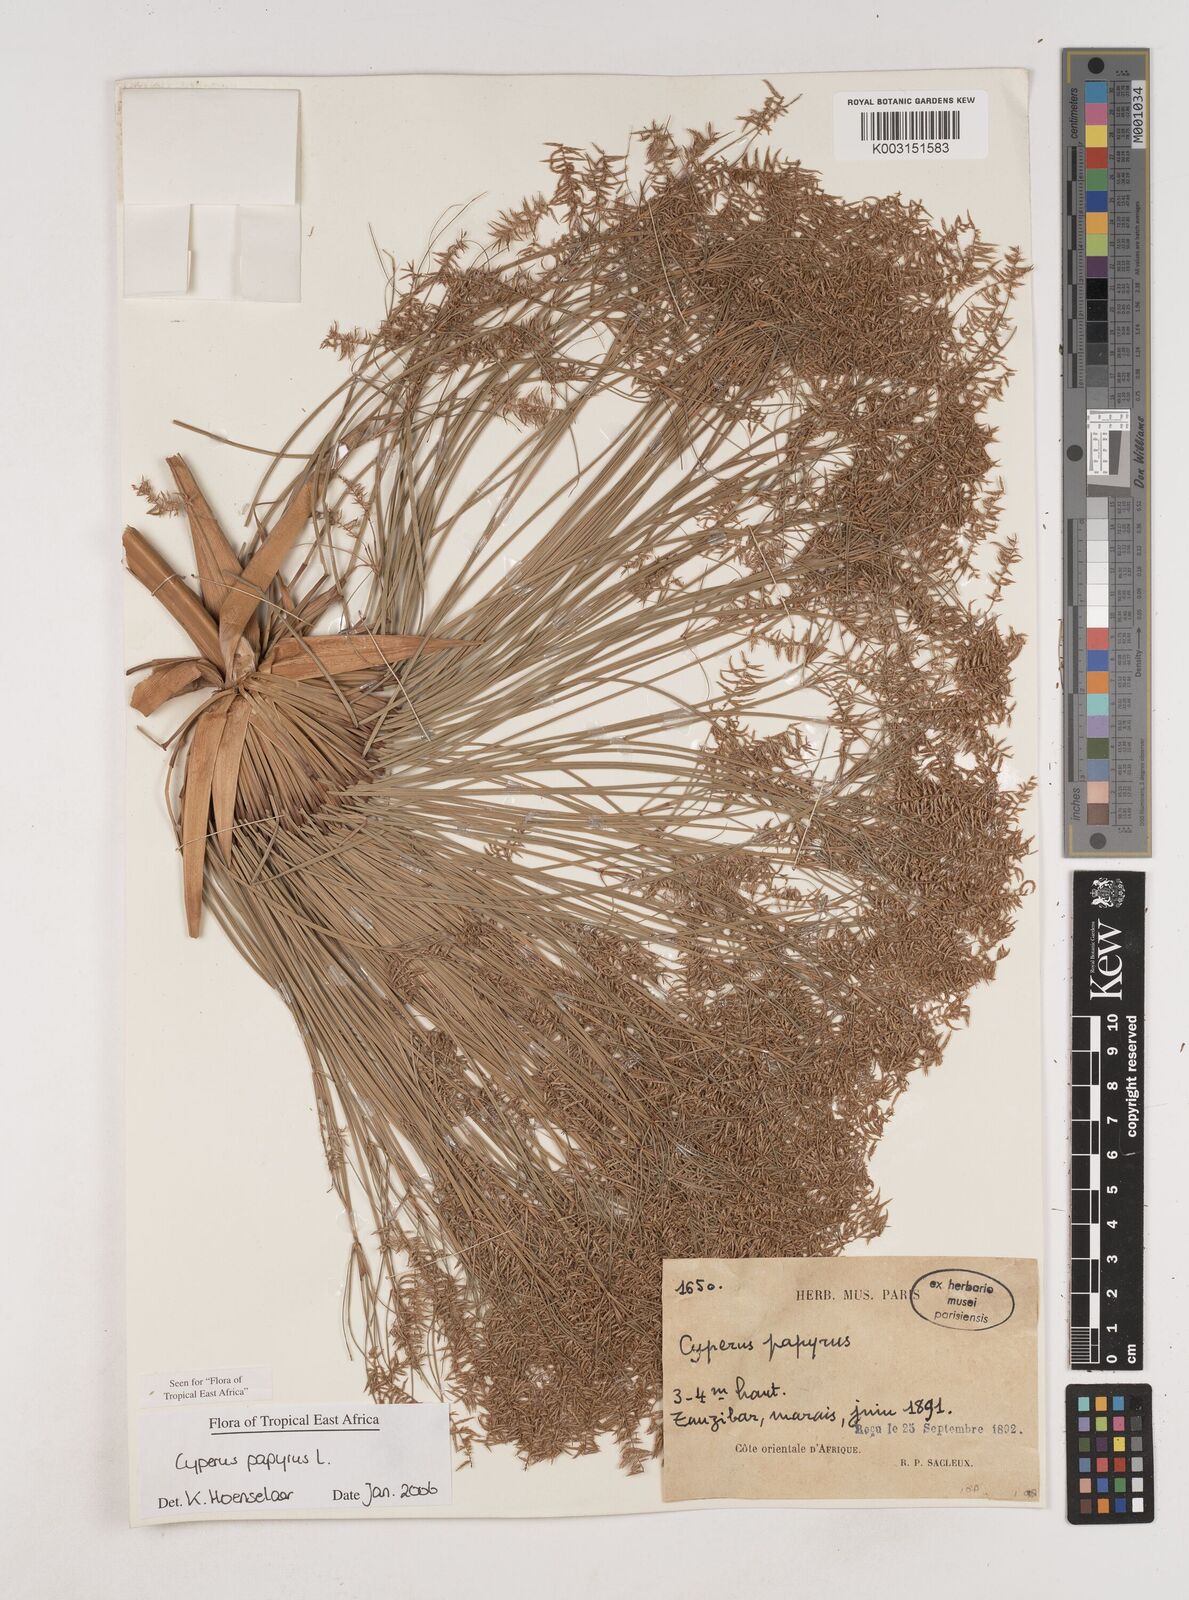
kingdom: Plantae
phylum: Tracheophyta
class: Liliopsida
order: Poales
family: Cyperaceae
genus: Cyperus
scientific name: Cyperus papyrus
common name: Papyrus
